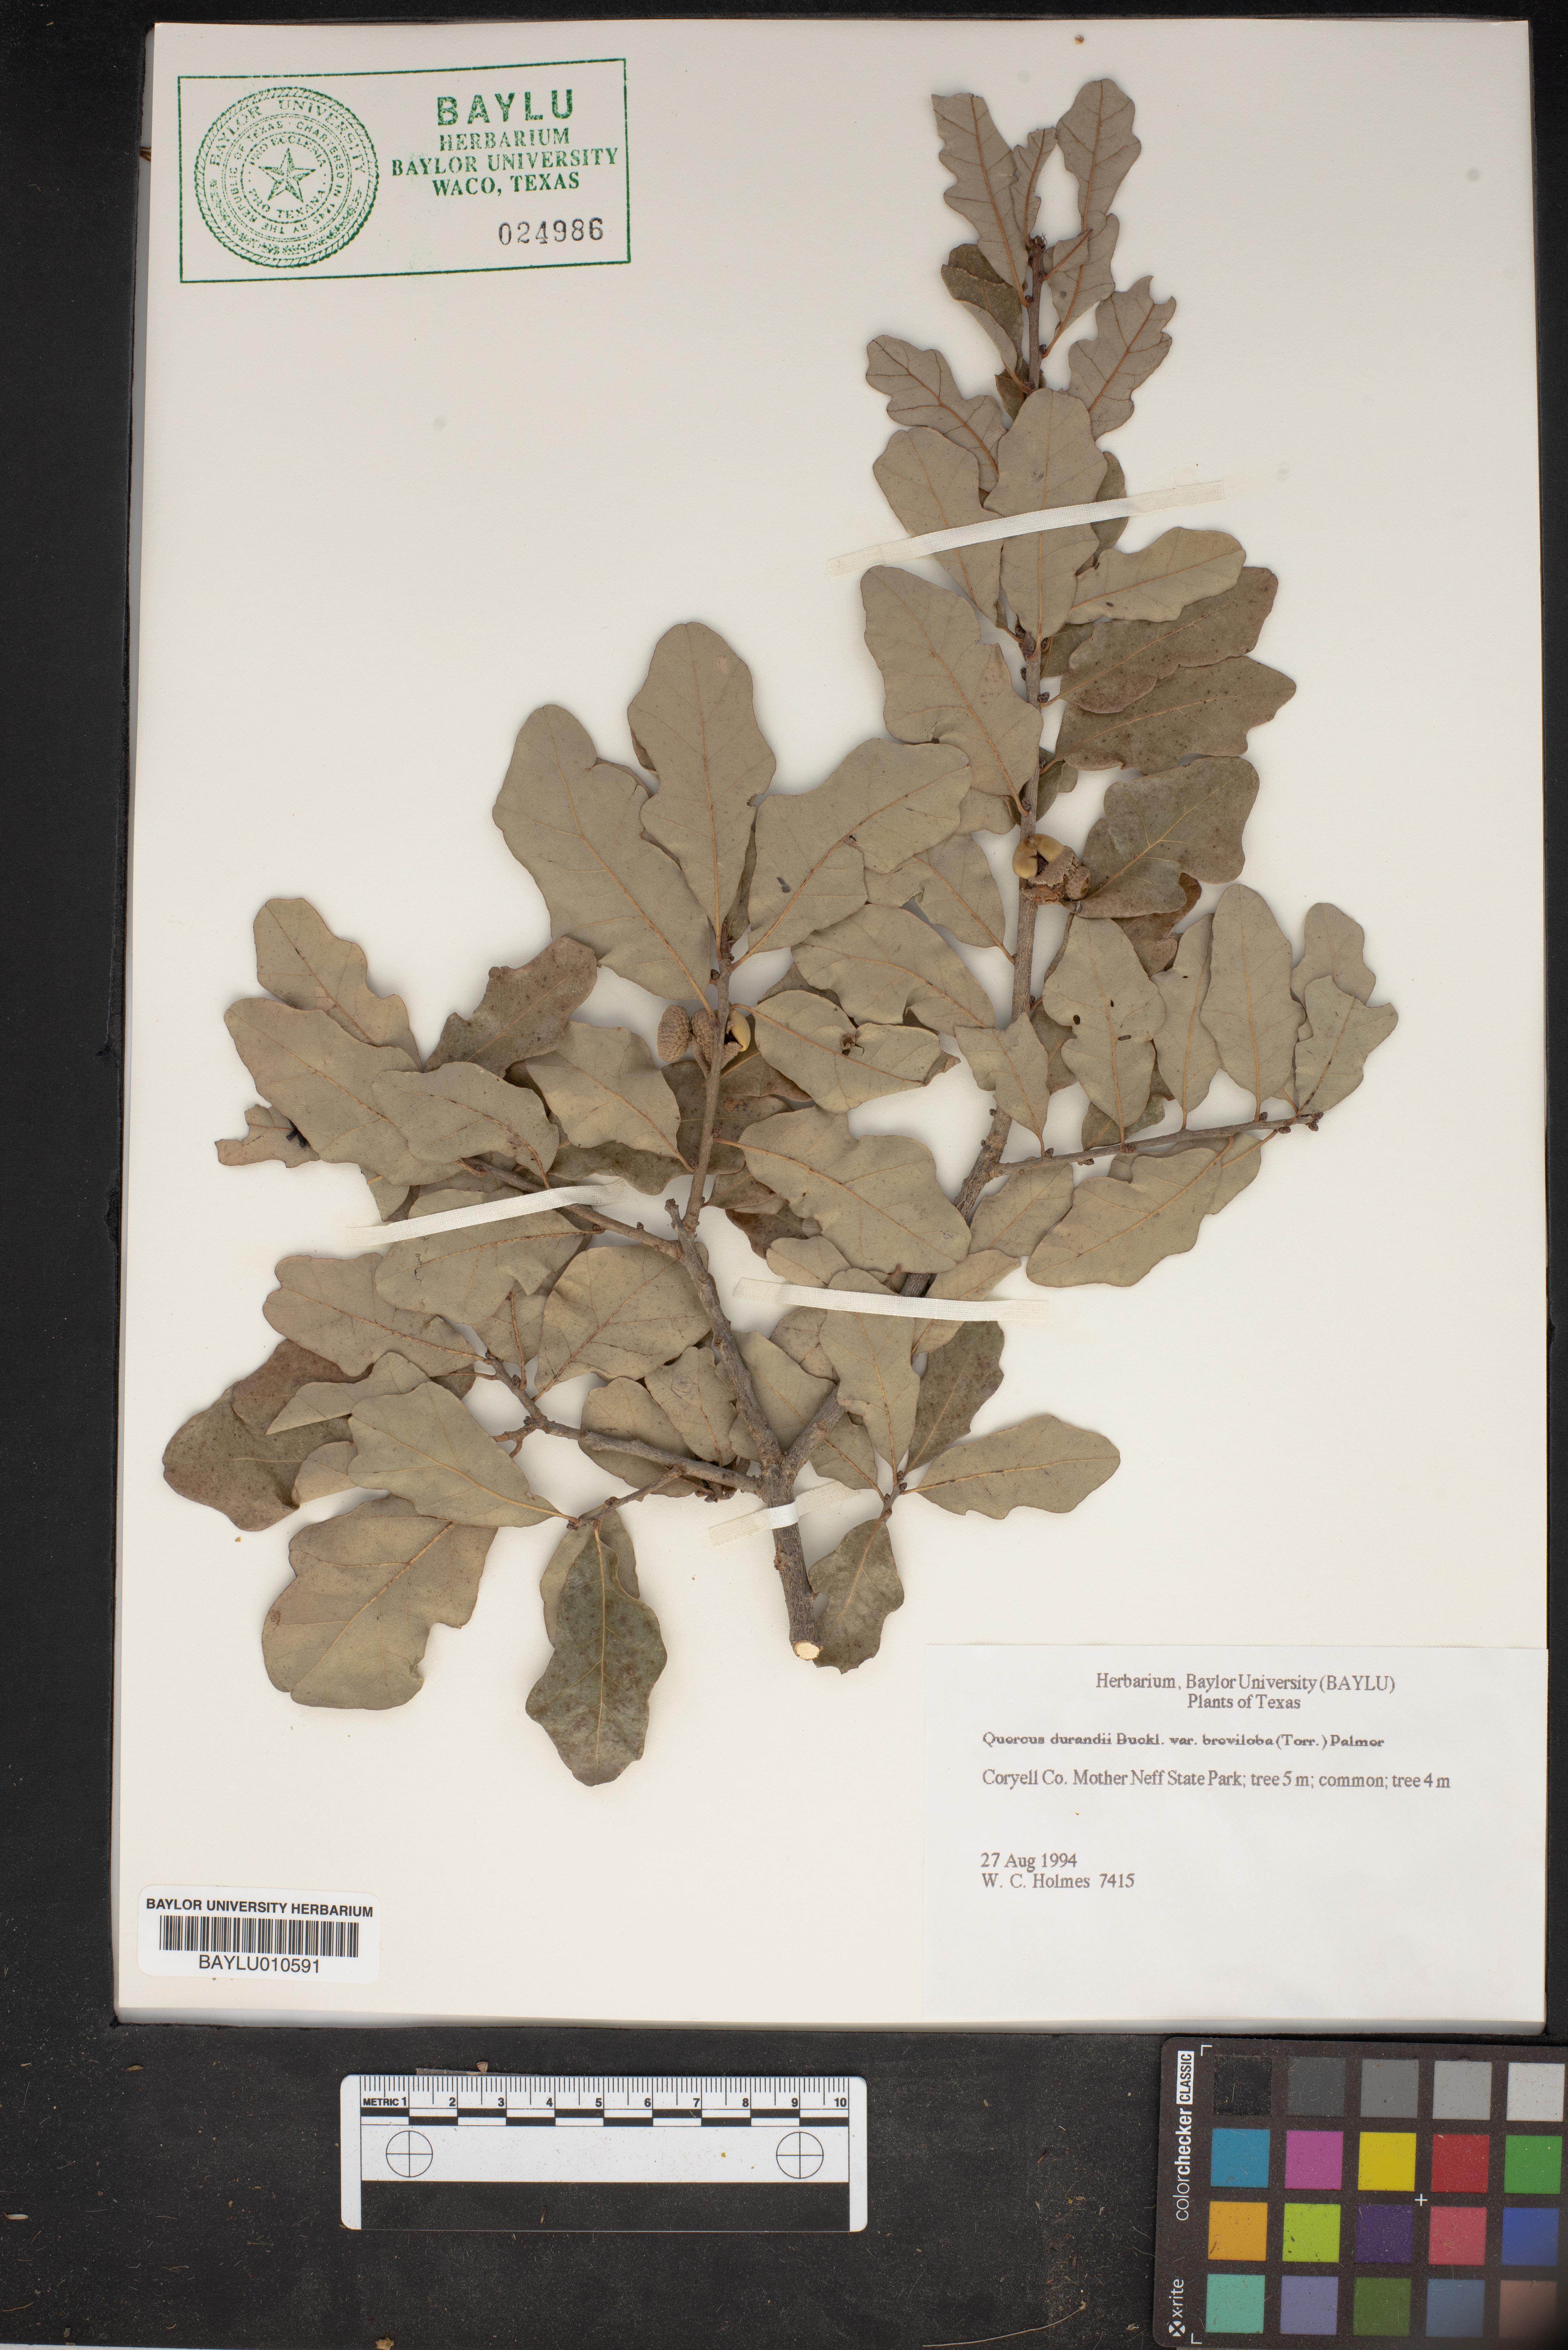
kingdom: Plantae
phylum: Tracheophyta
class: Magnoliopsida
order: Fagales
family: Fagaceae
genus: Quercus
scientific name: Quercus sinuata
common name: Durand oak
